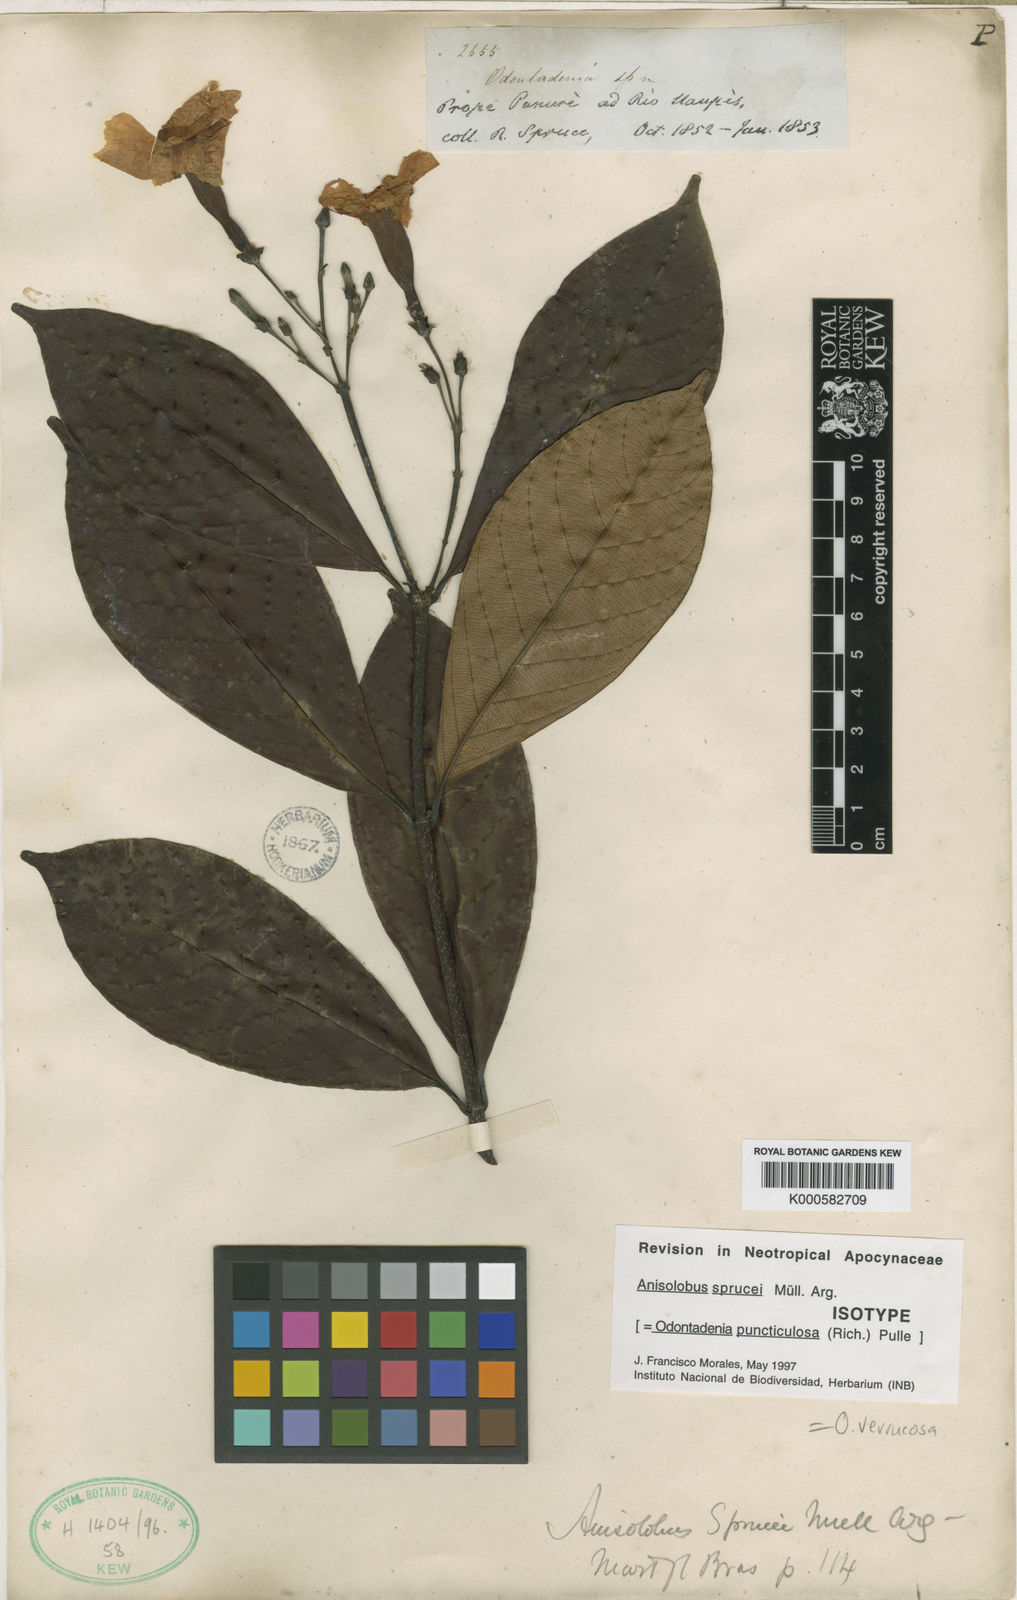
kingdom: Plantae
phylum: Tracheophyta
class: Magnoliopsida
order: Gentianales
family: Apocynaceae
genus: Odontadenia
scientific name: Odontadenia puncticulosa
